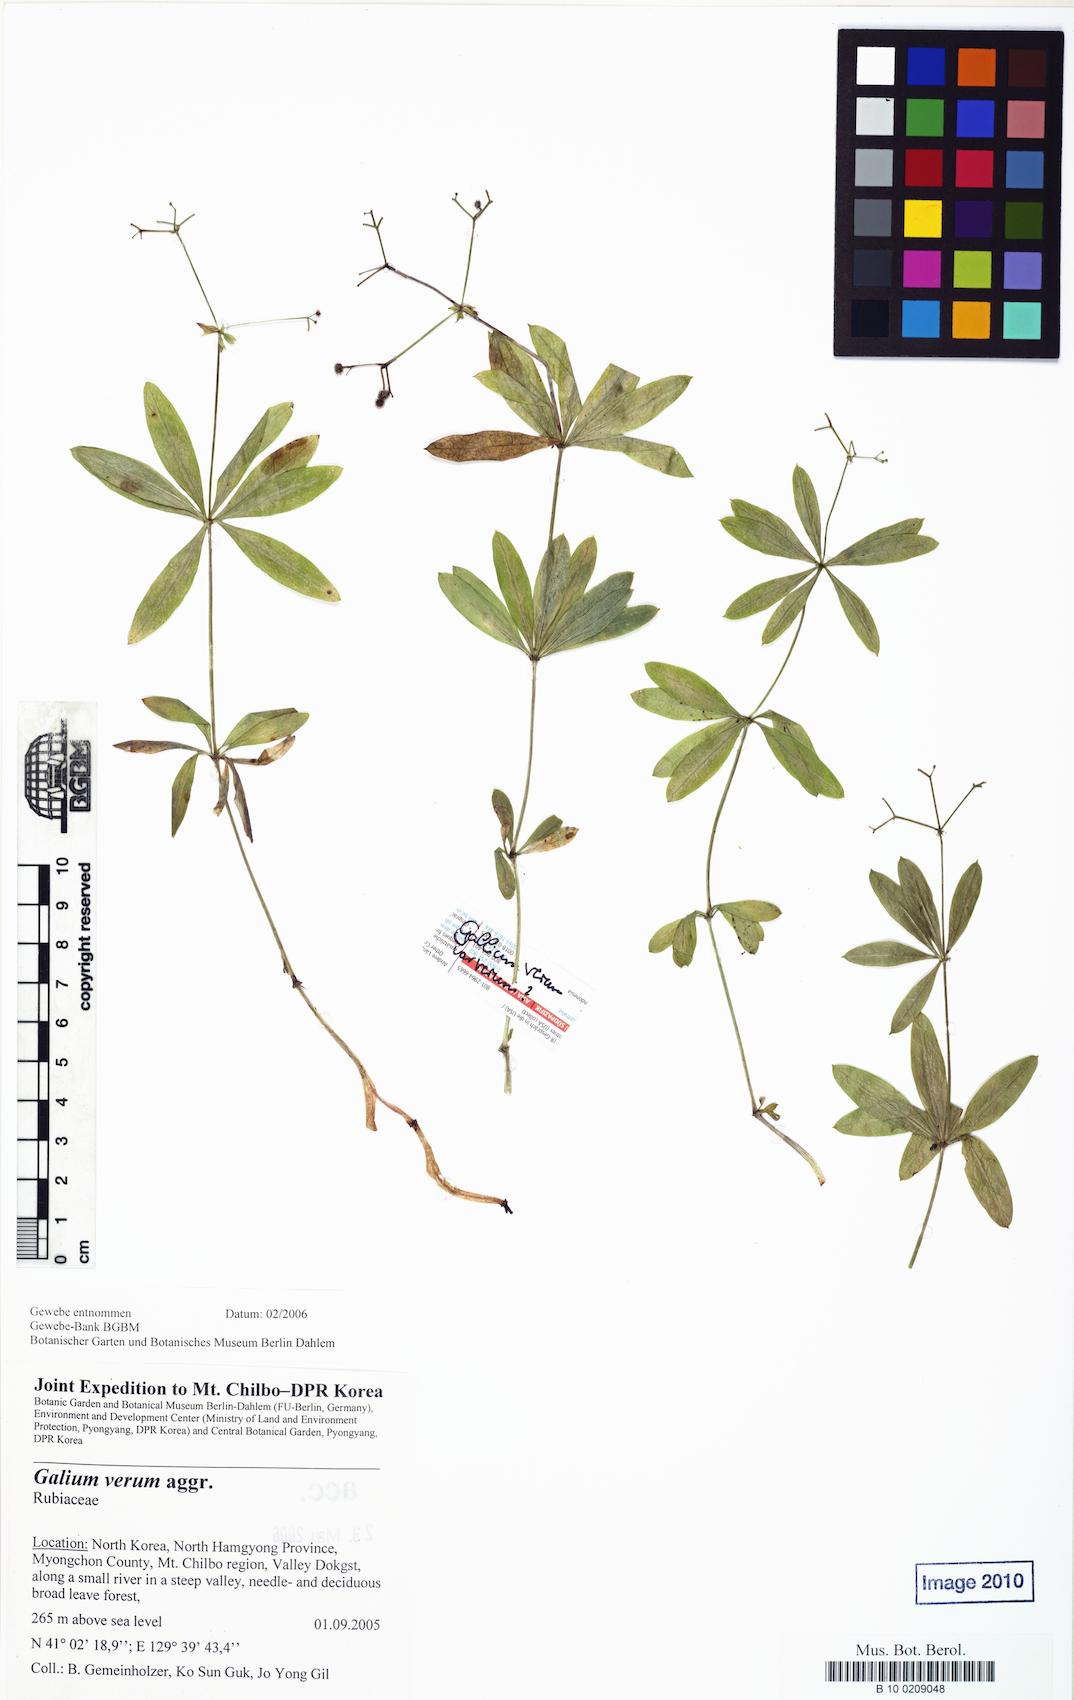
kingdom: Plantae
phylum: Tracheophyta
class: Magnoliopsida
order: Gentianales
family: Rubiaceae
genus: Galium
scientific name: Galium
